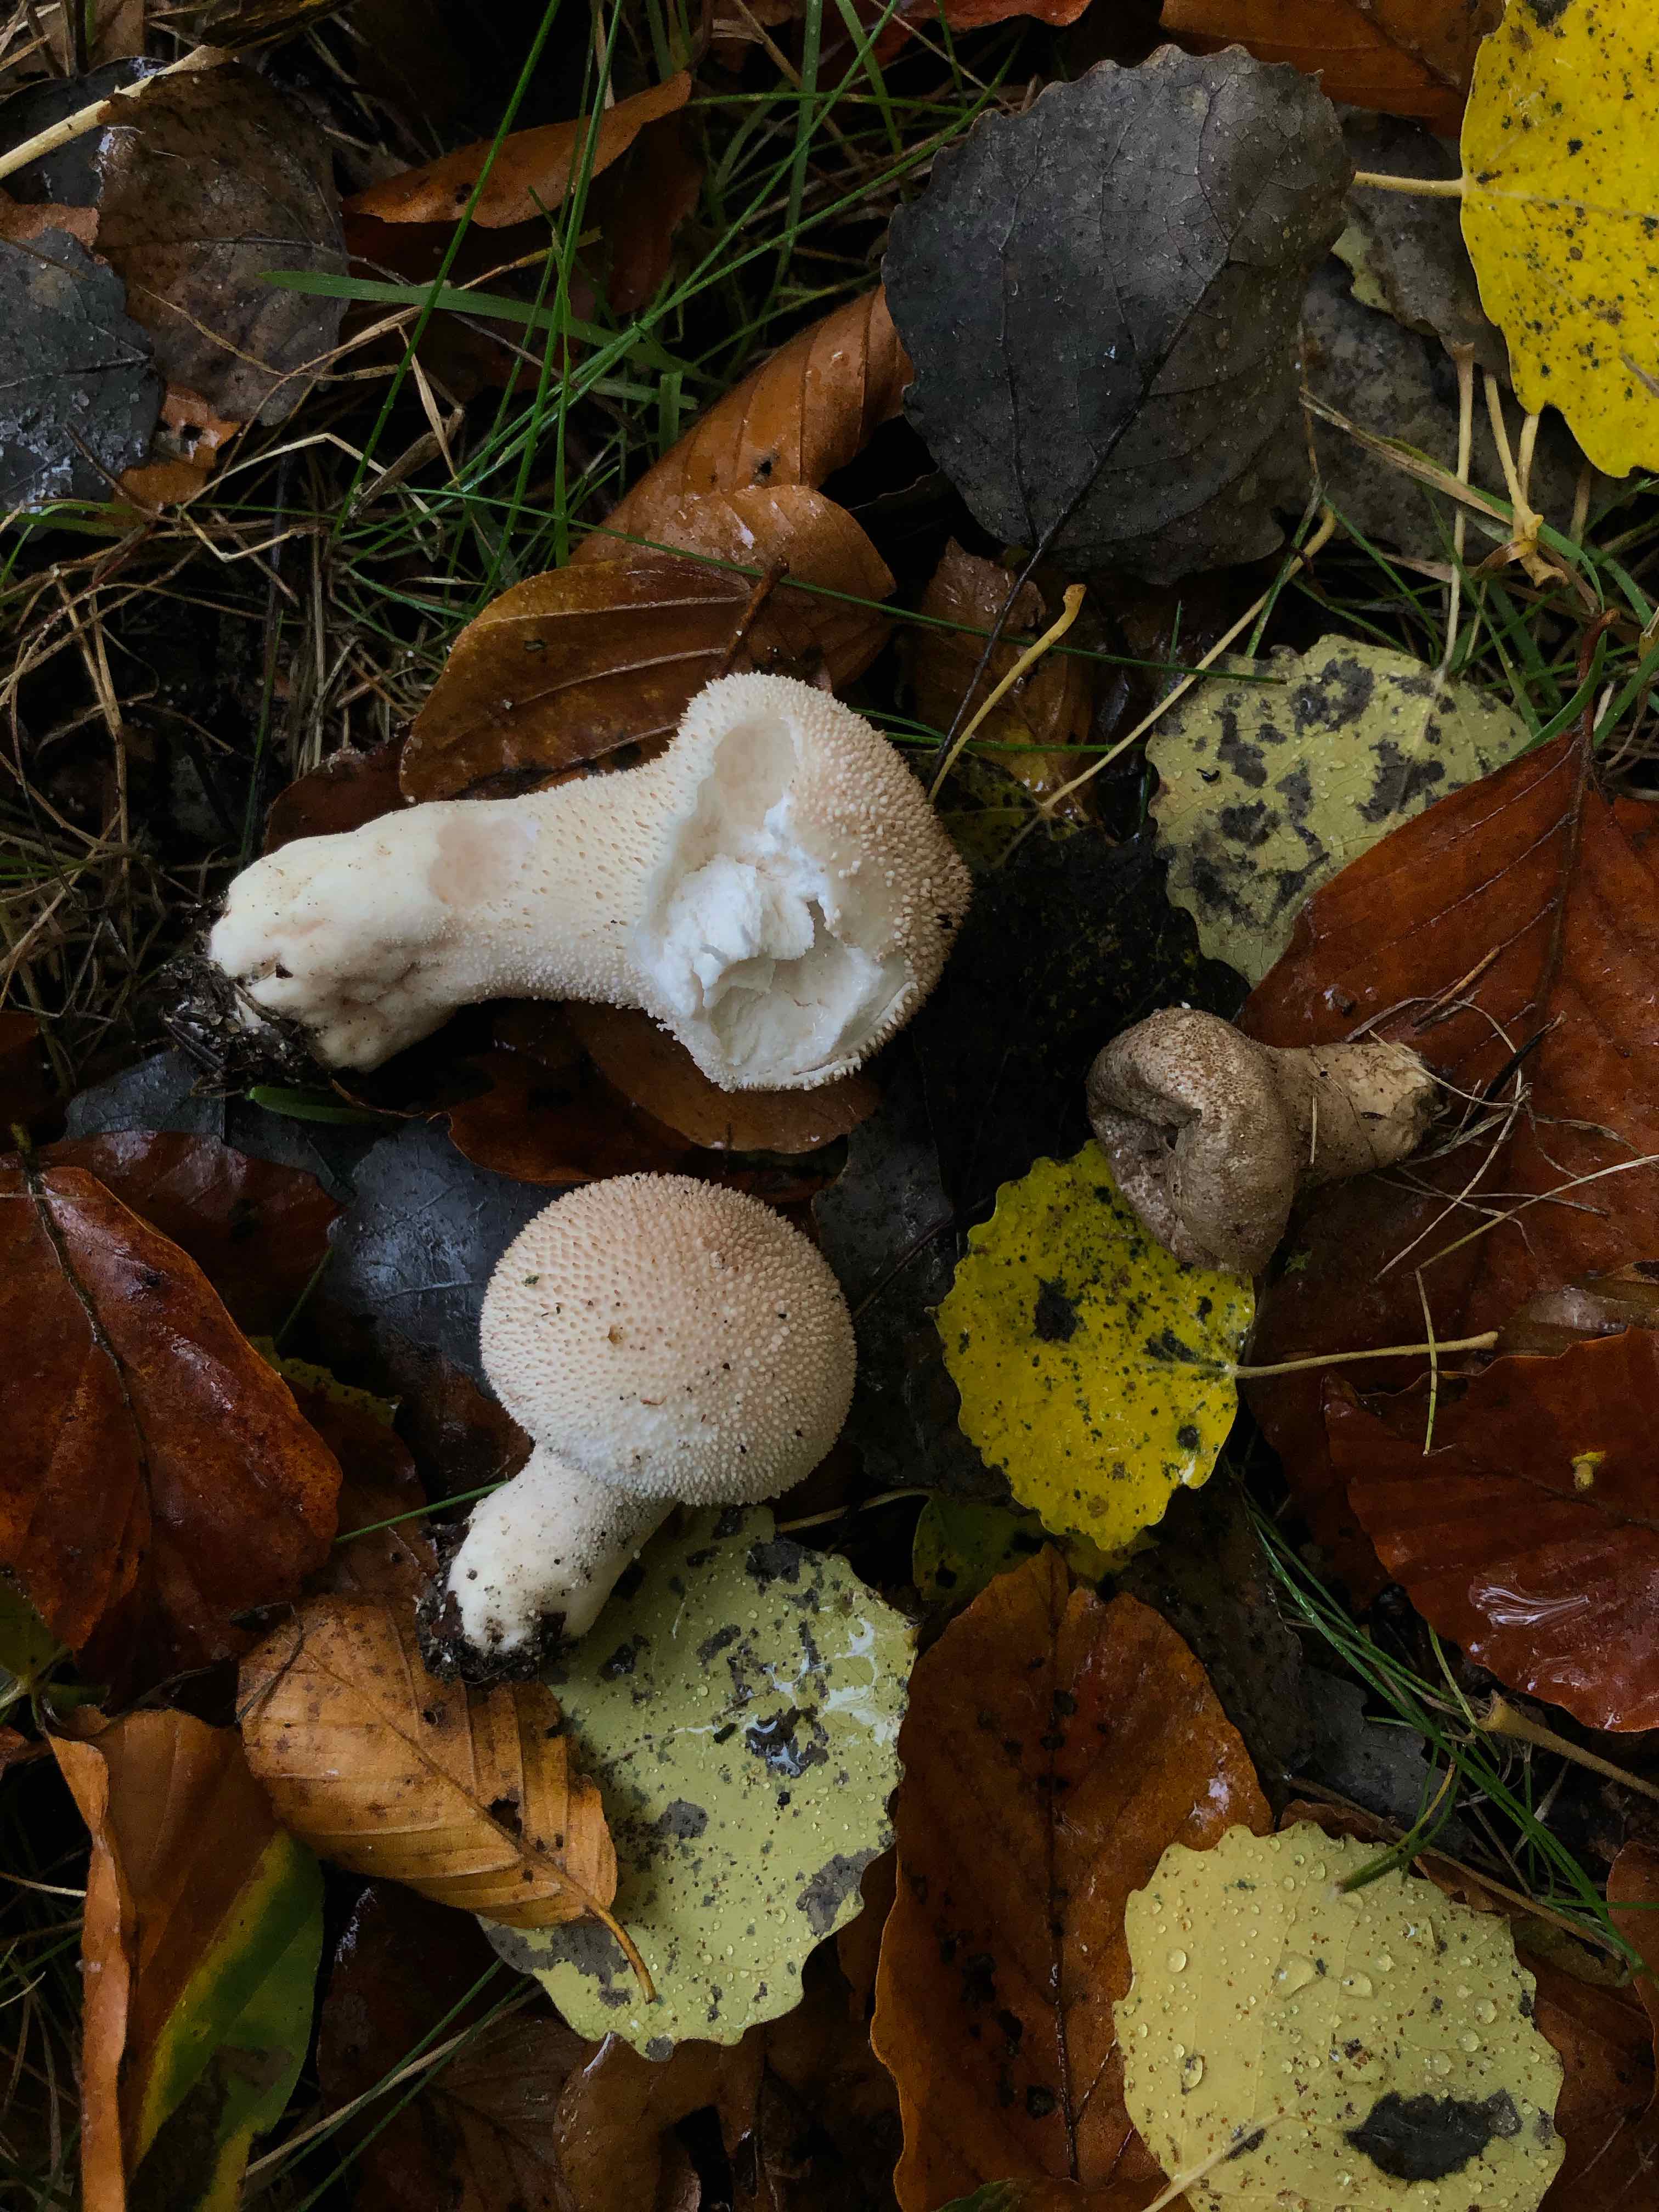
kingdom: Fungi
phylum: Basidiomycota
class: Agaricomycetes
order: Agaricales
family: Lycoperdaceae
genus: Lycoperdon
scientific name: Lycoperdon perlatum
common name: krystal-støvbold
